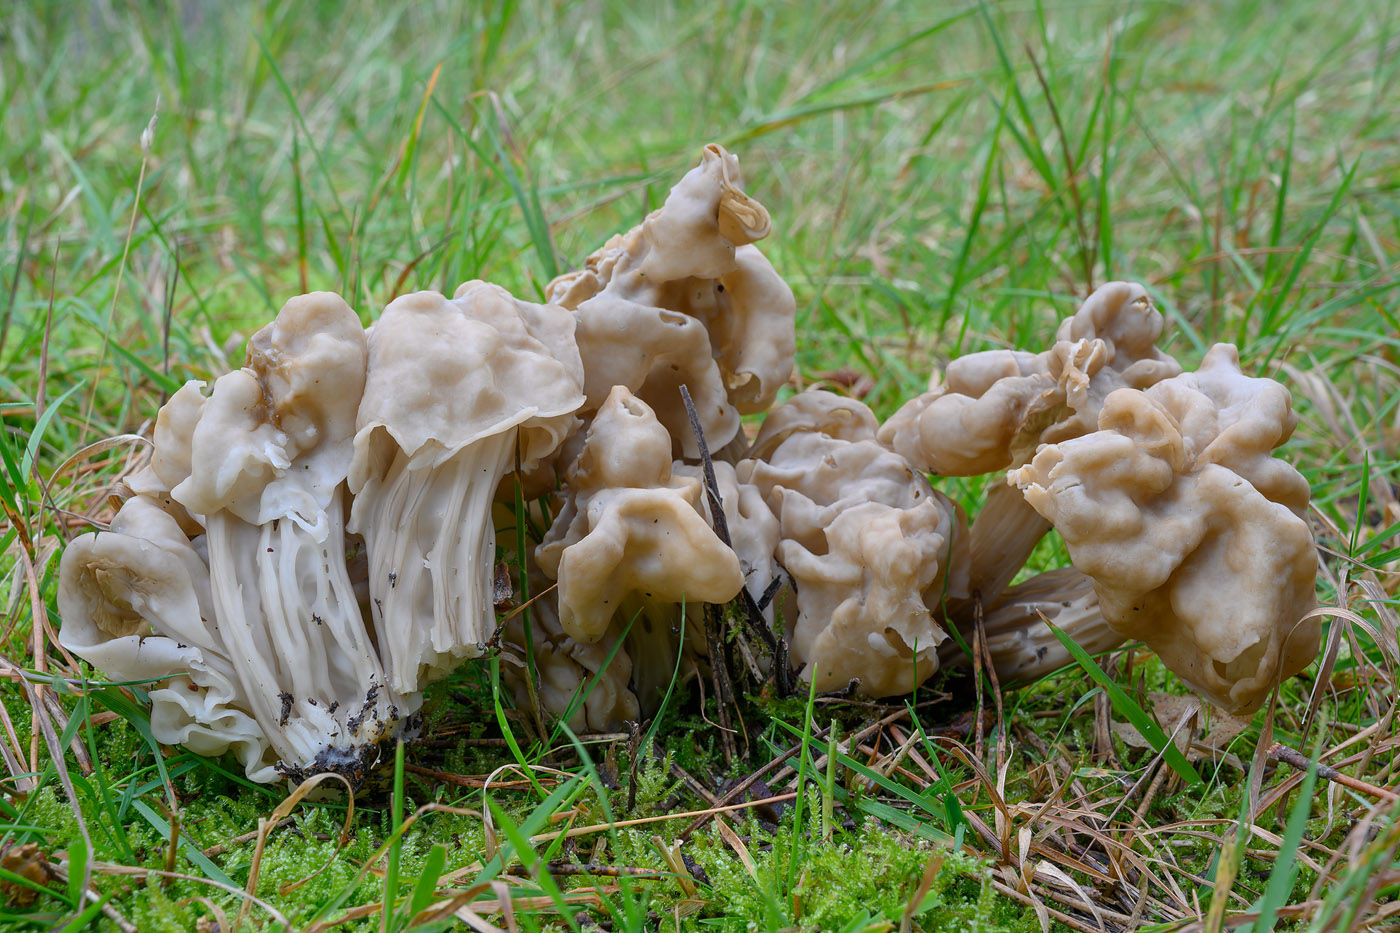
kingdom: Fungi
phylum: Ascomycota
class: Pezizomycetes
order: Pezizales
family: Helvellaceae
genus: Helvella
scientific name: Helvella
